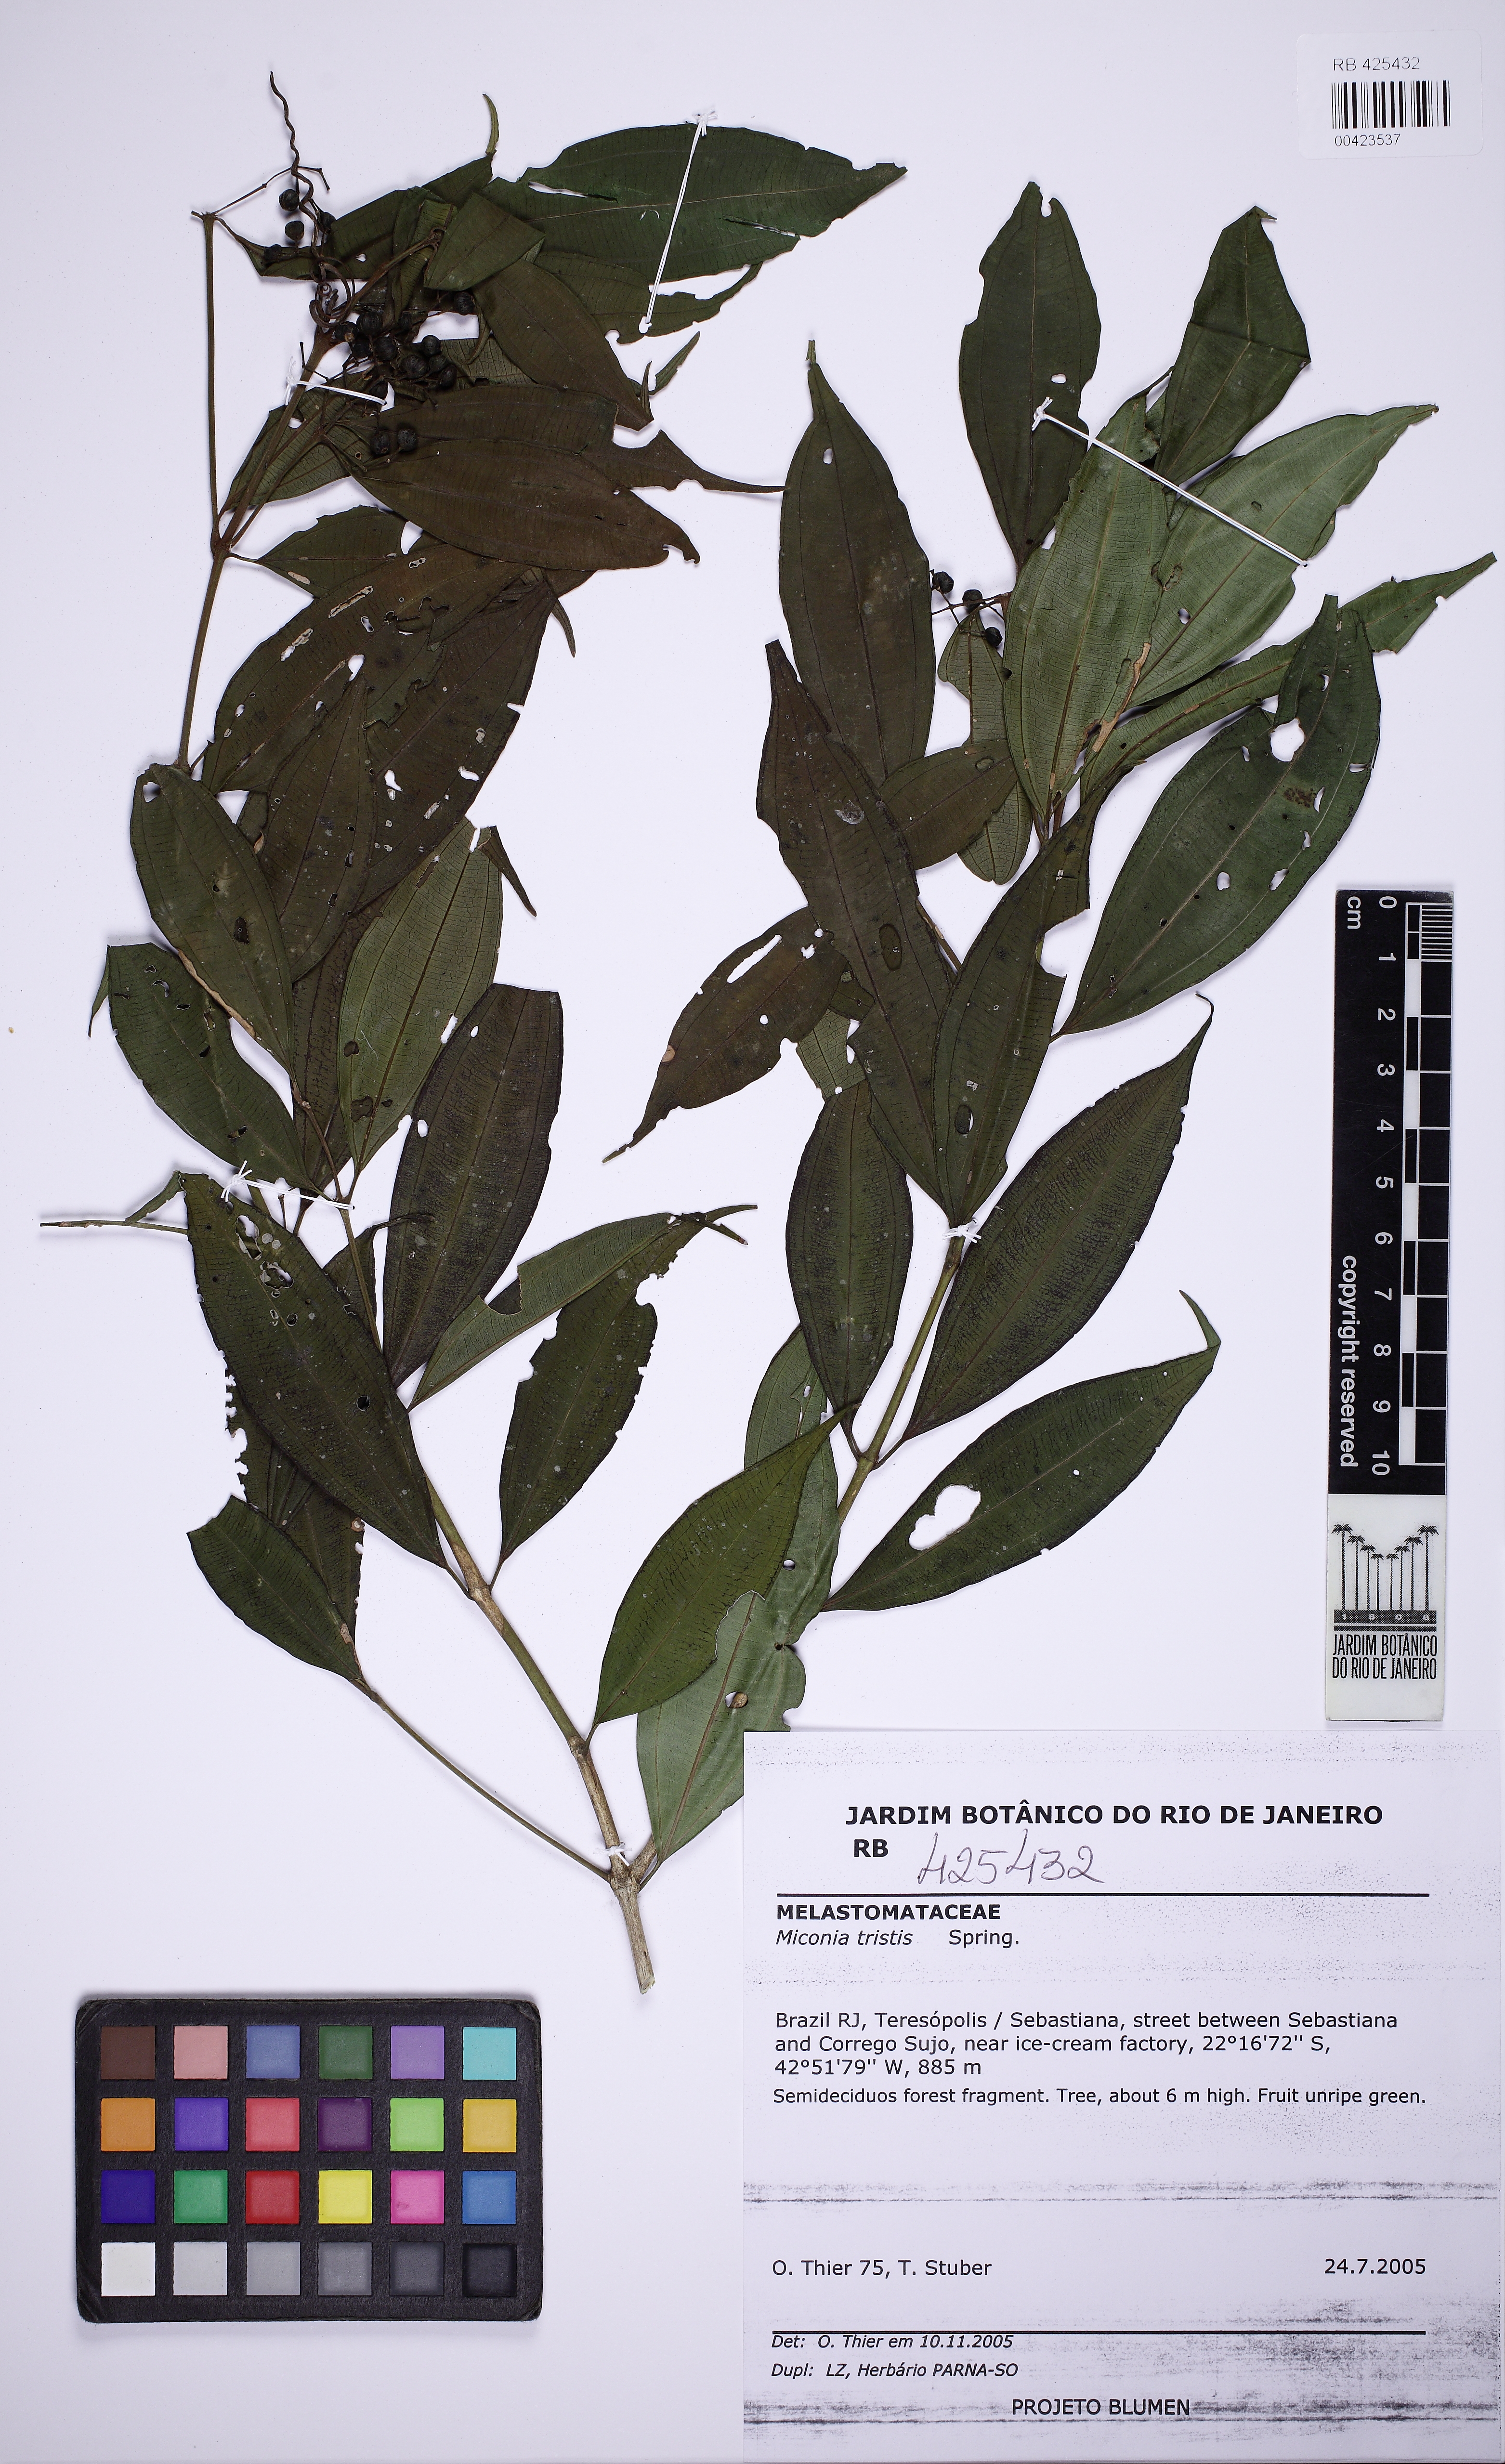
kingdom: Plantae
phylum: Tracheophyta
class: Magnoliopsida
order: Myrtales
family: Melastomataceae
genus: Miconia
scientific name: Miconia tristis
